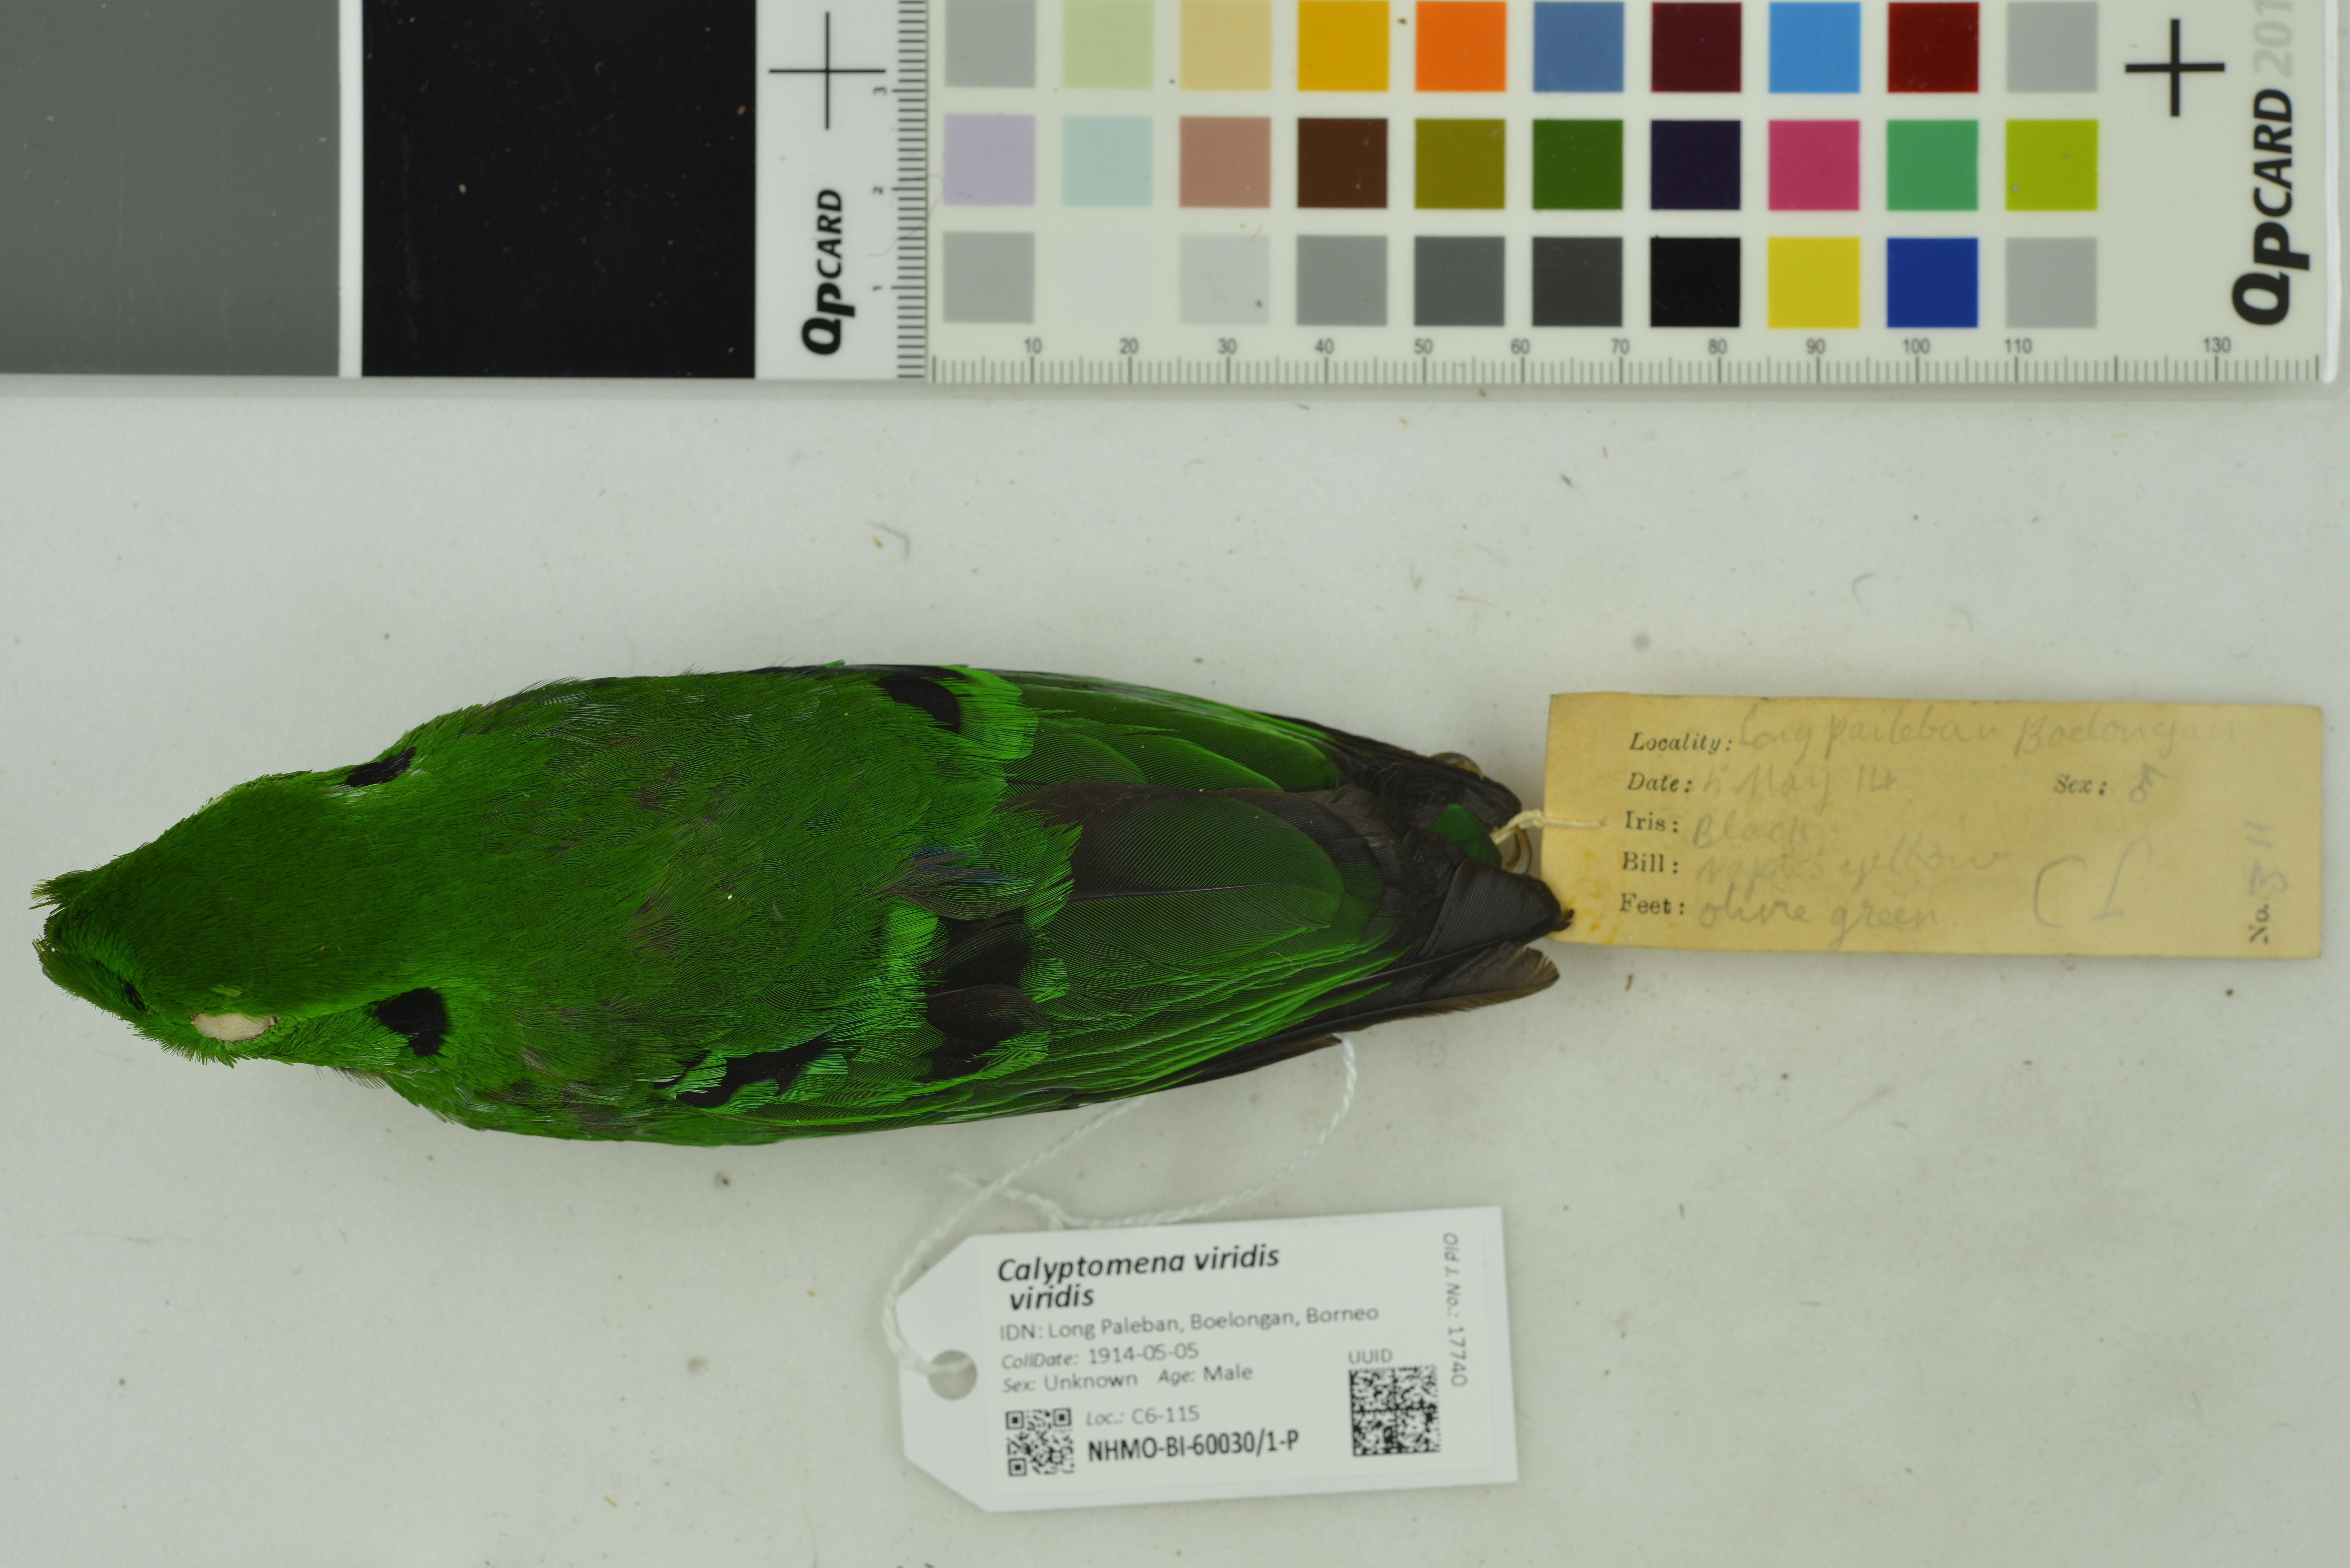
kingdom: Animalia
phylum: Chordata
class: Aves
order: Passeriformes
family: Eurylaimidae
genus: Calyptomena
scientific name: Calyptomena viridis
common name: Green broadbill
